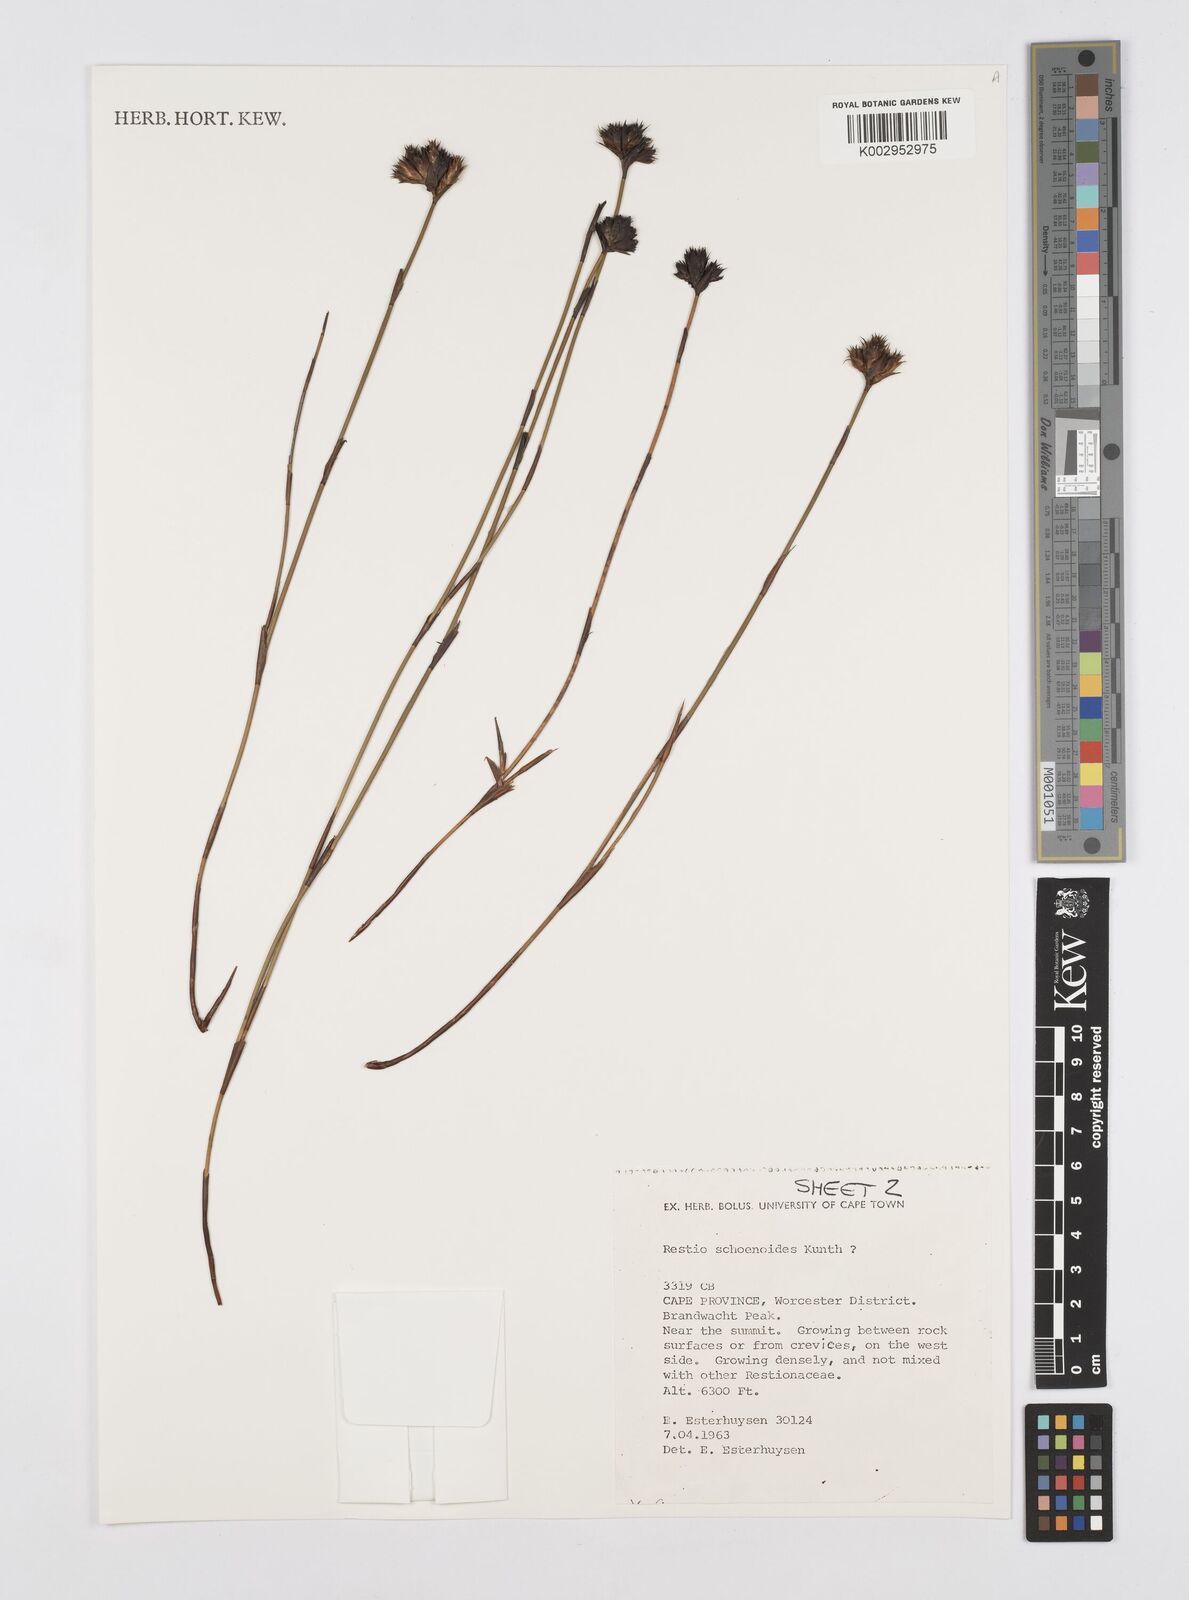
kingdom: Plantae
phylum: Tracheophyta
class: Liliopsida
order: Poales
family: Restionaceae
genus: Restio
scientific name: Restio schoenoides
